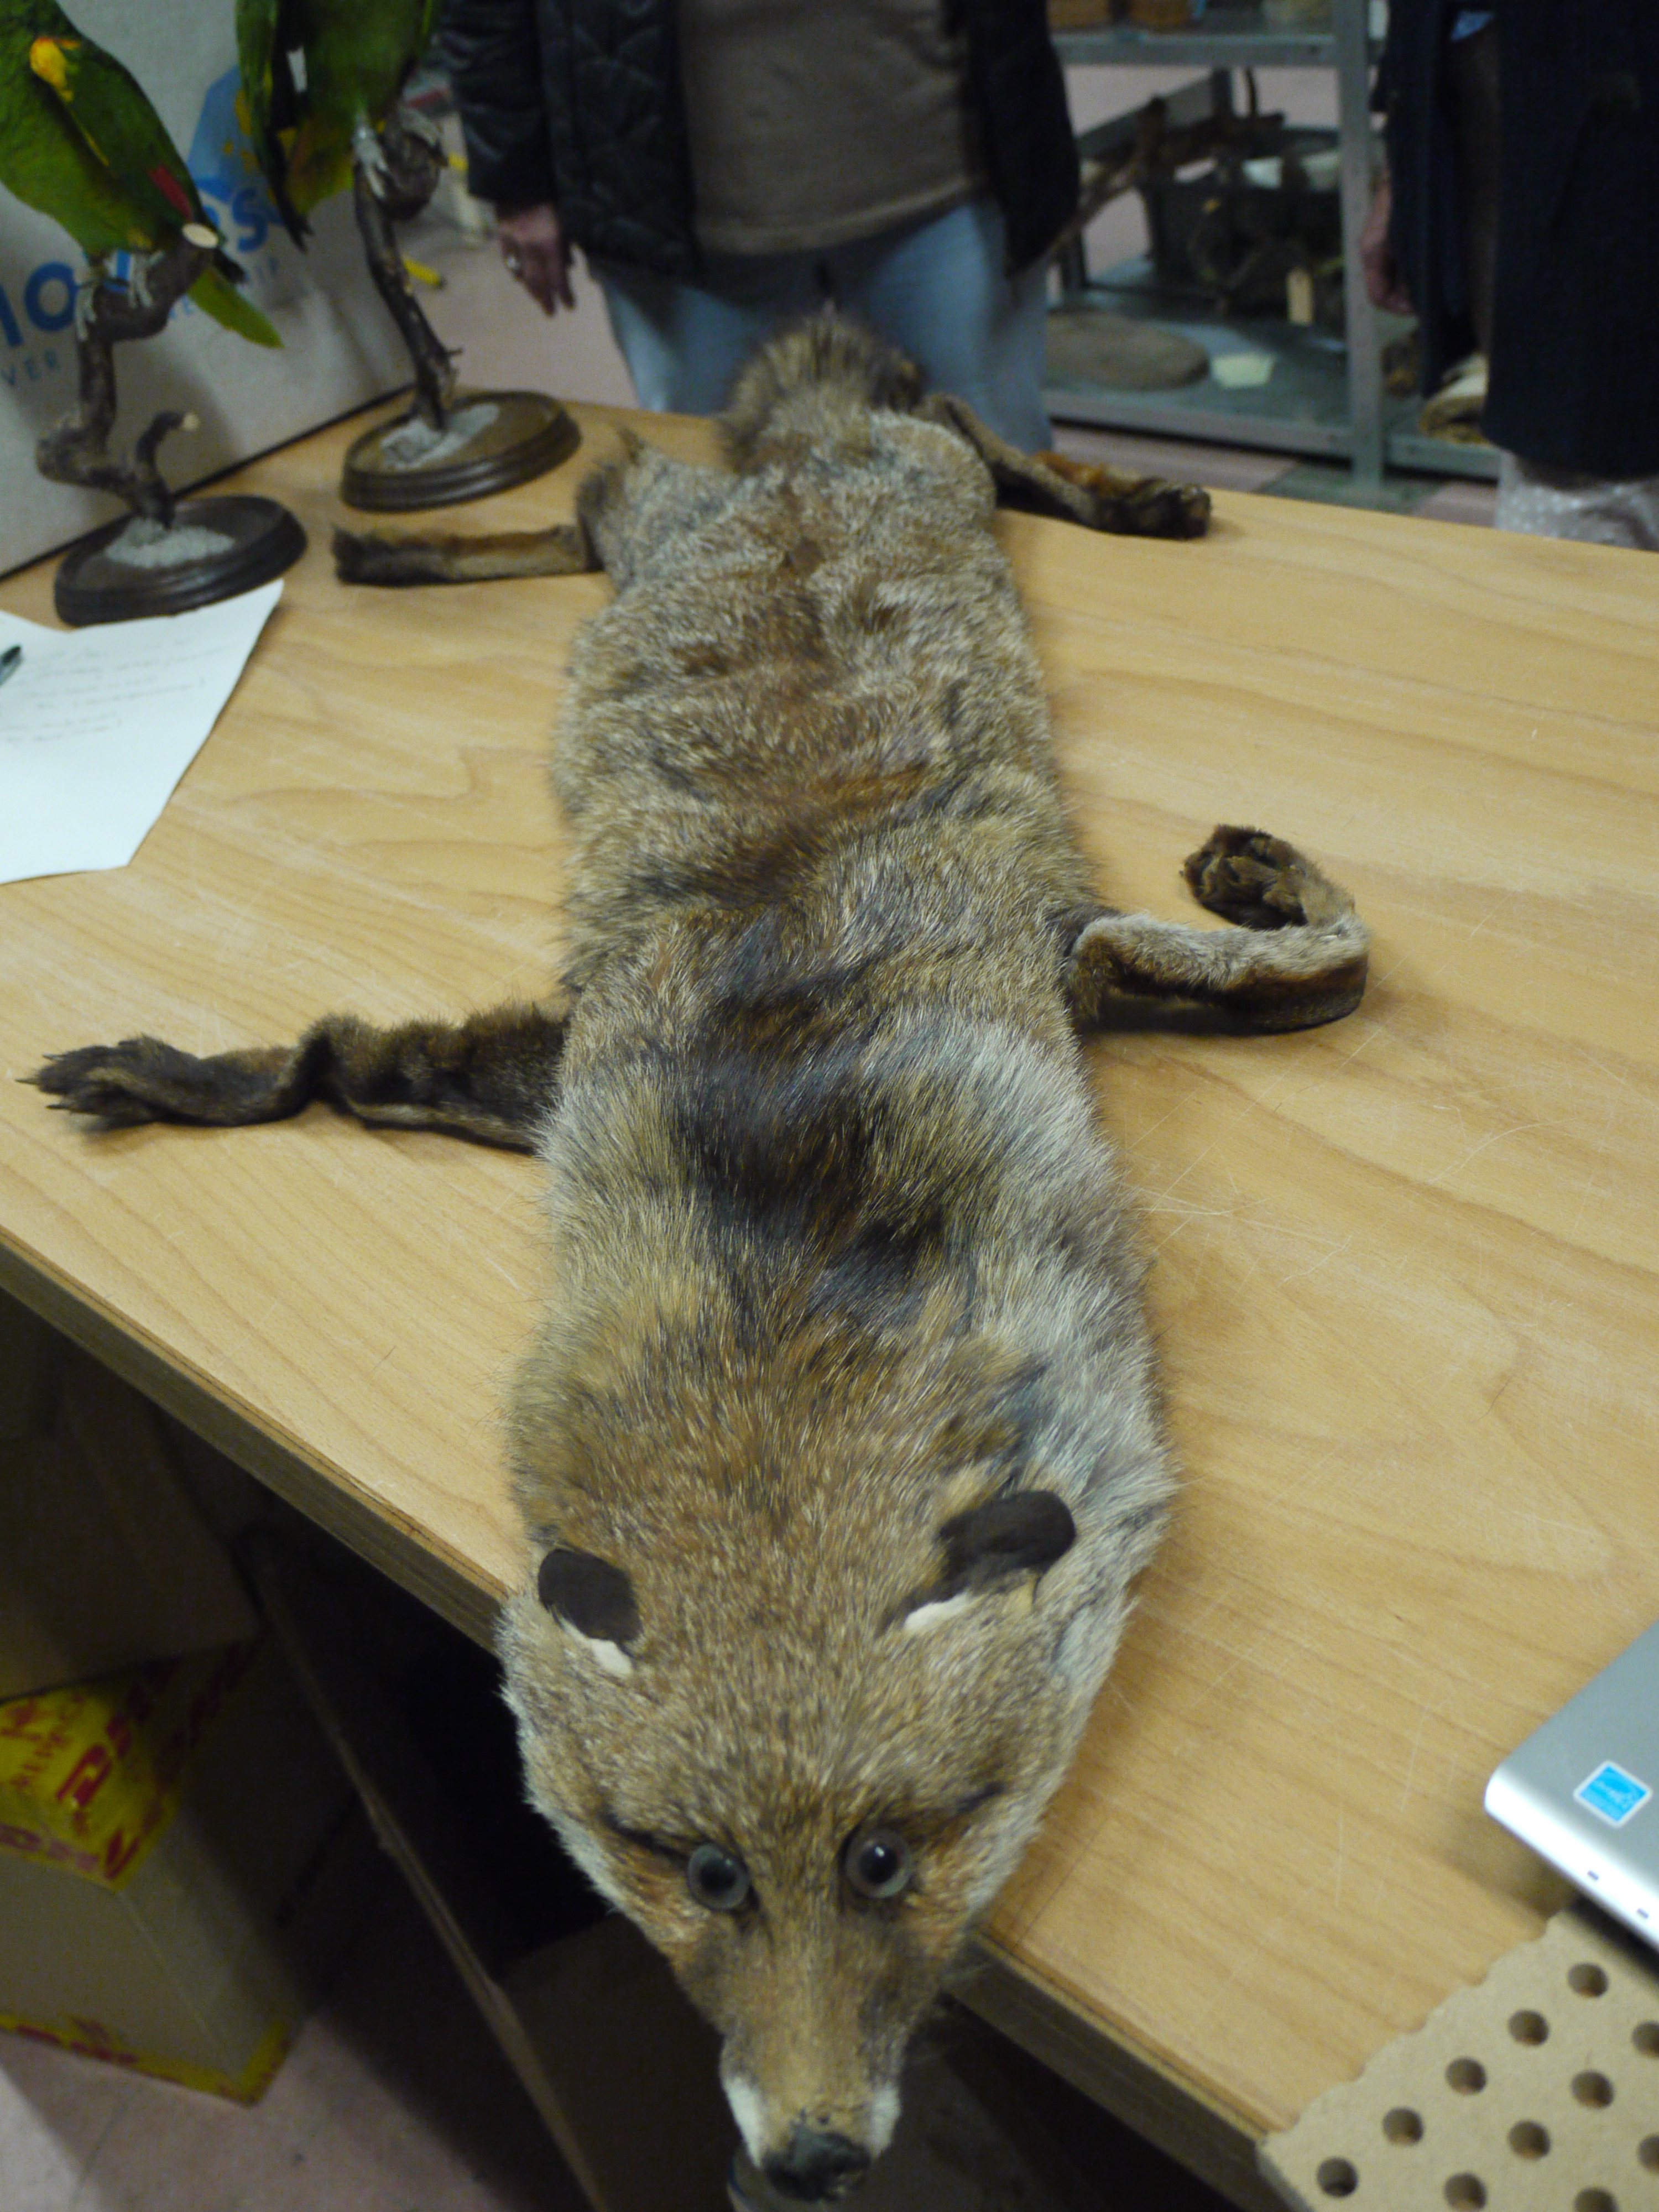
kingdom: Animalia
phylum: Chordata
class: Mammalia
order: Carnivora
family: Canidae
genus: Vulpes
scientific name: Vulpes vulpes
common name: Red fox
